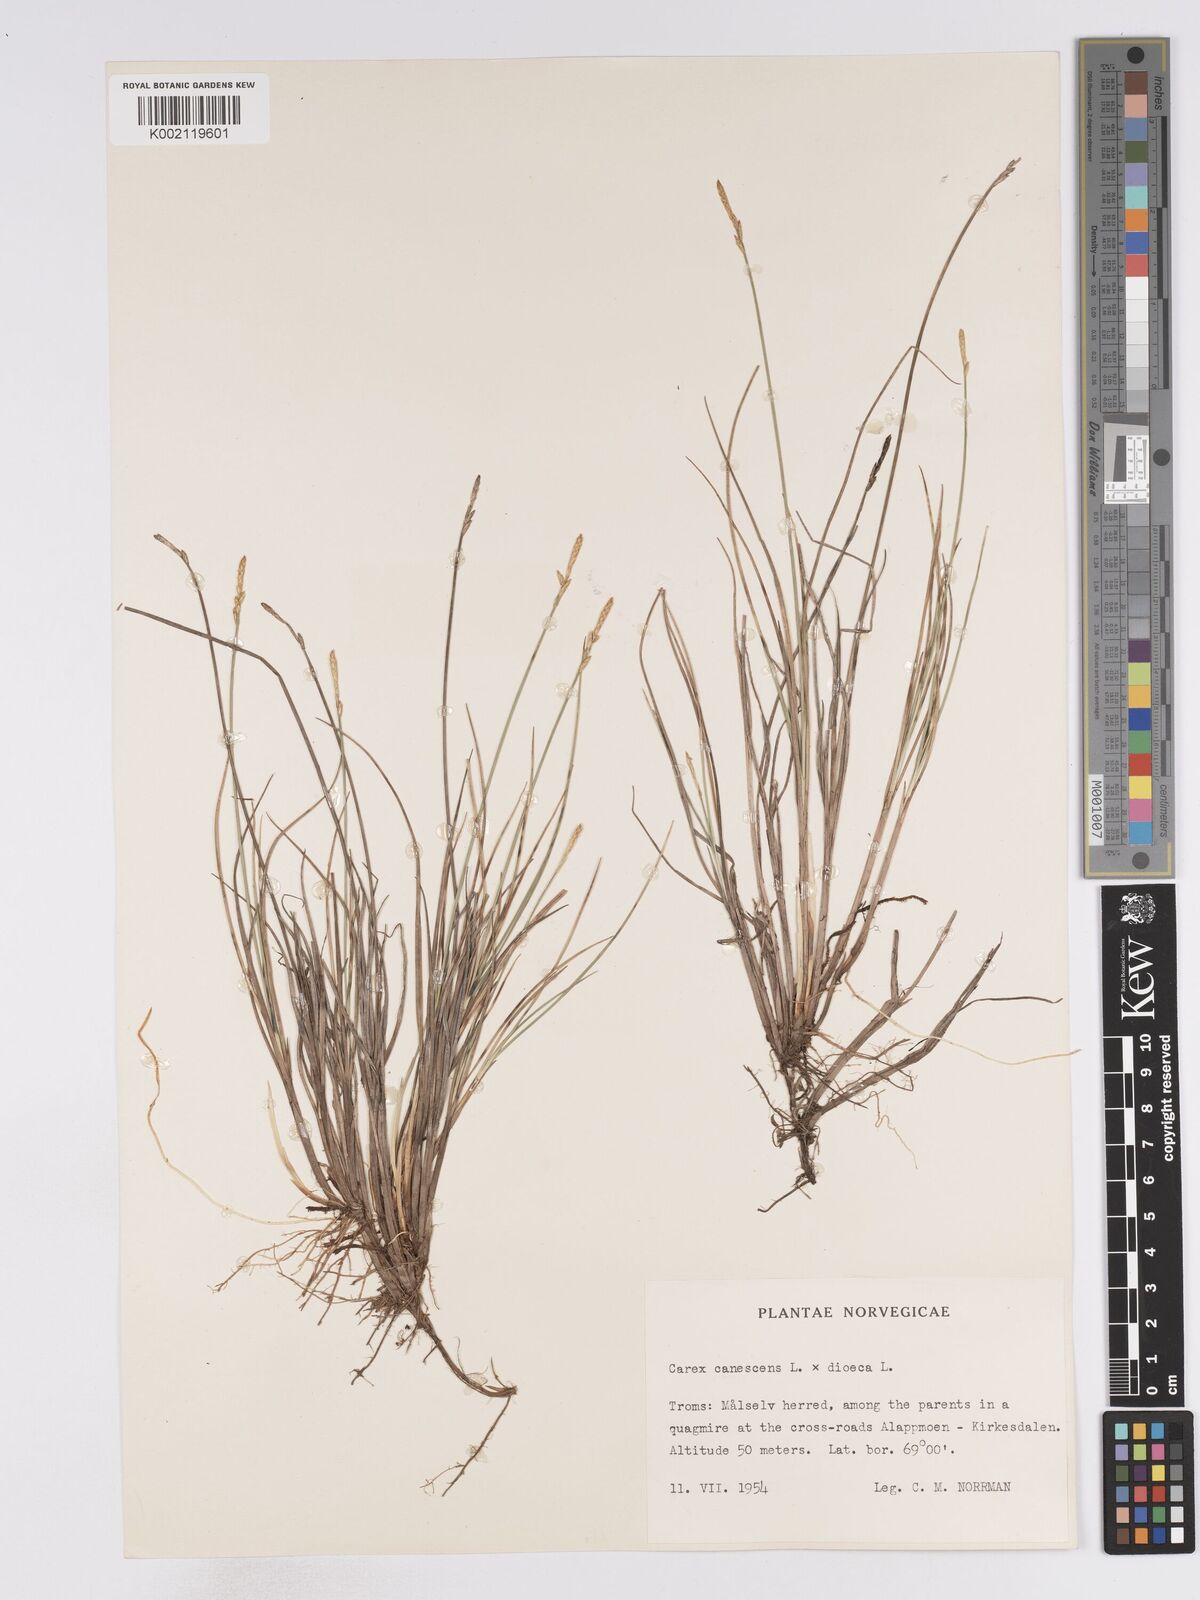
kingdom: Plantae
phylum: Tracheophyta
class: Liliopsida
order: Poales
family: Cyperaceae
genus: Carex
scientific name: Carex curta
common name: White sedge
